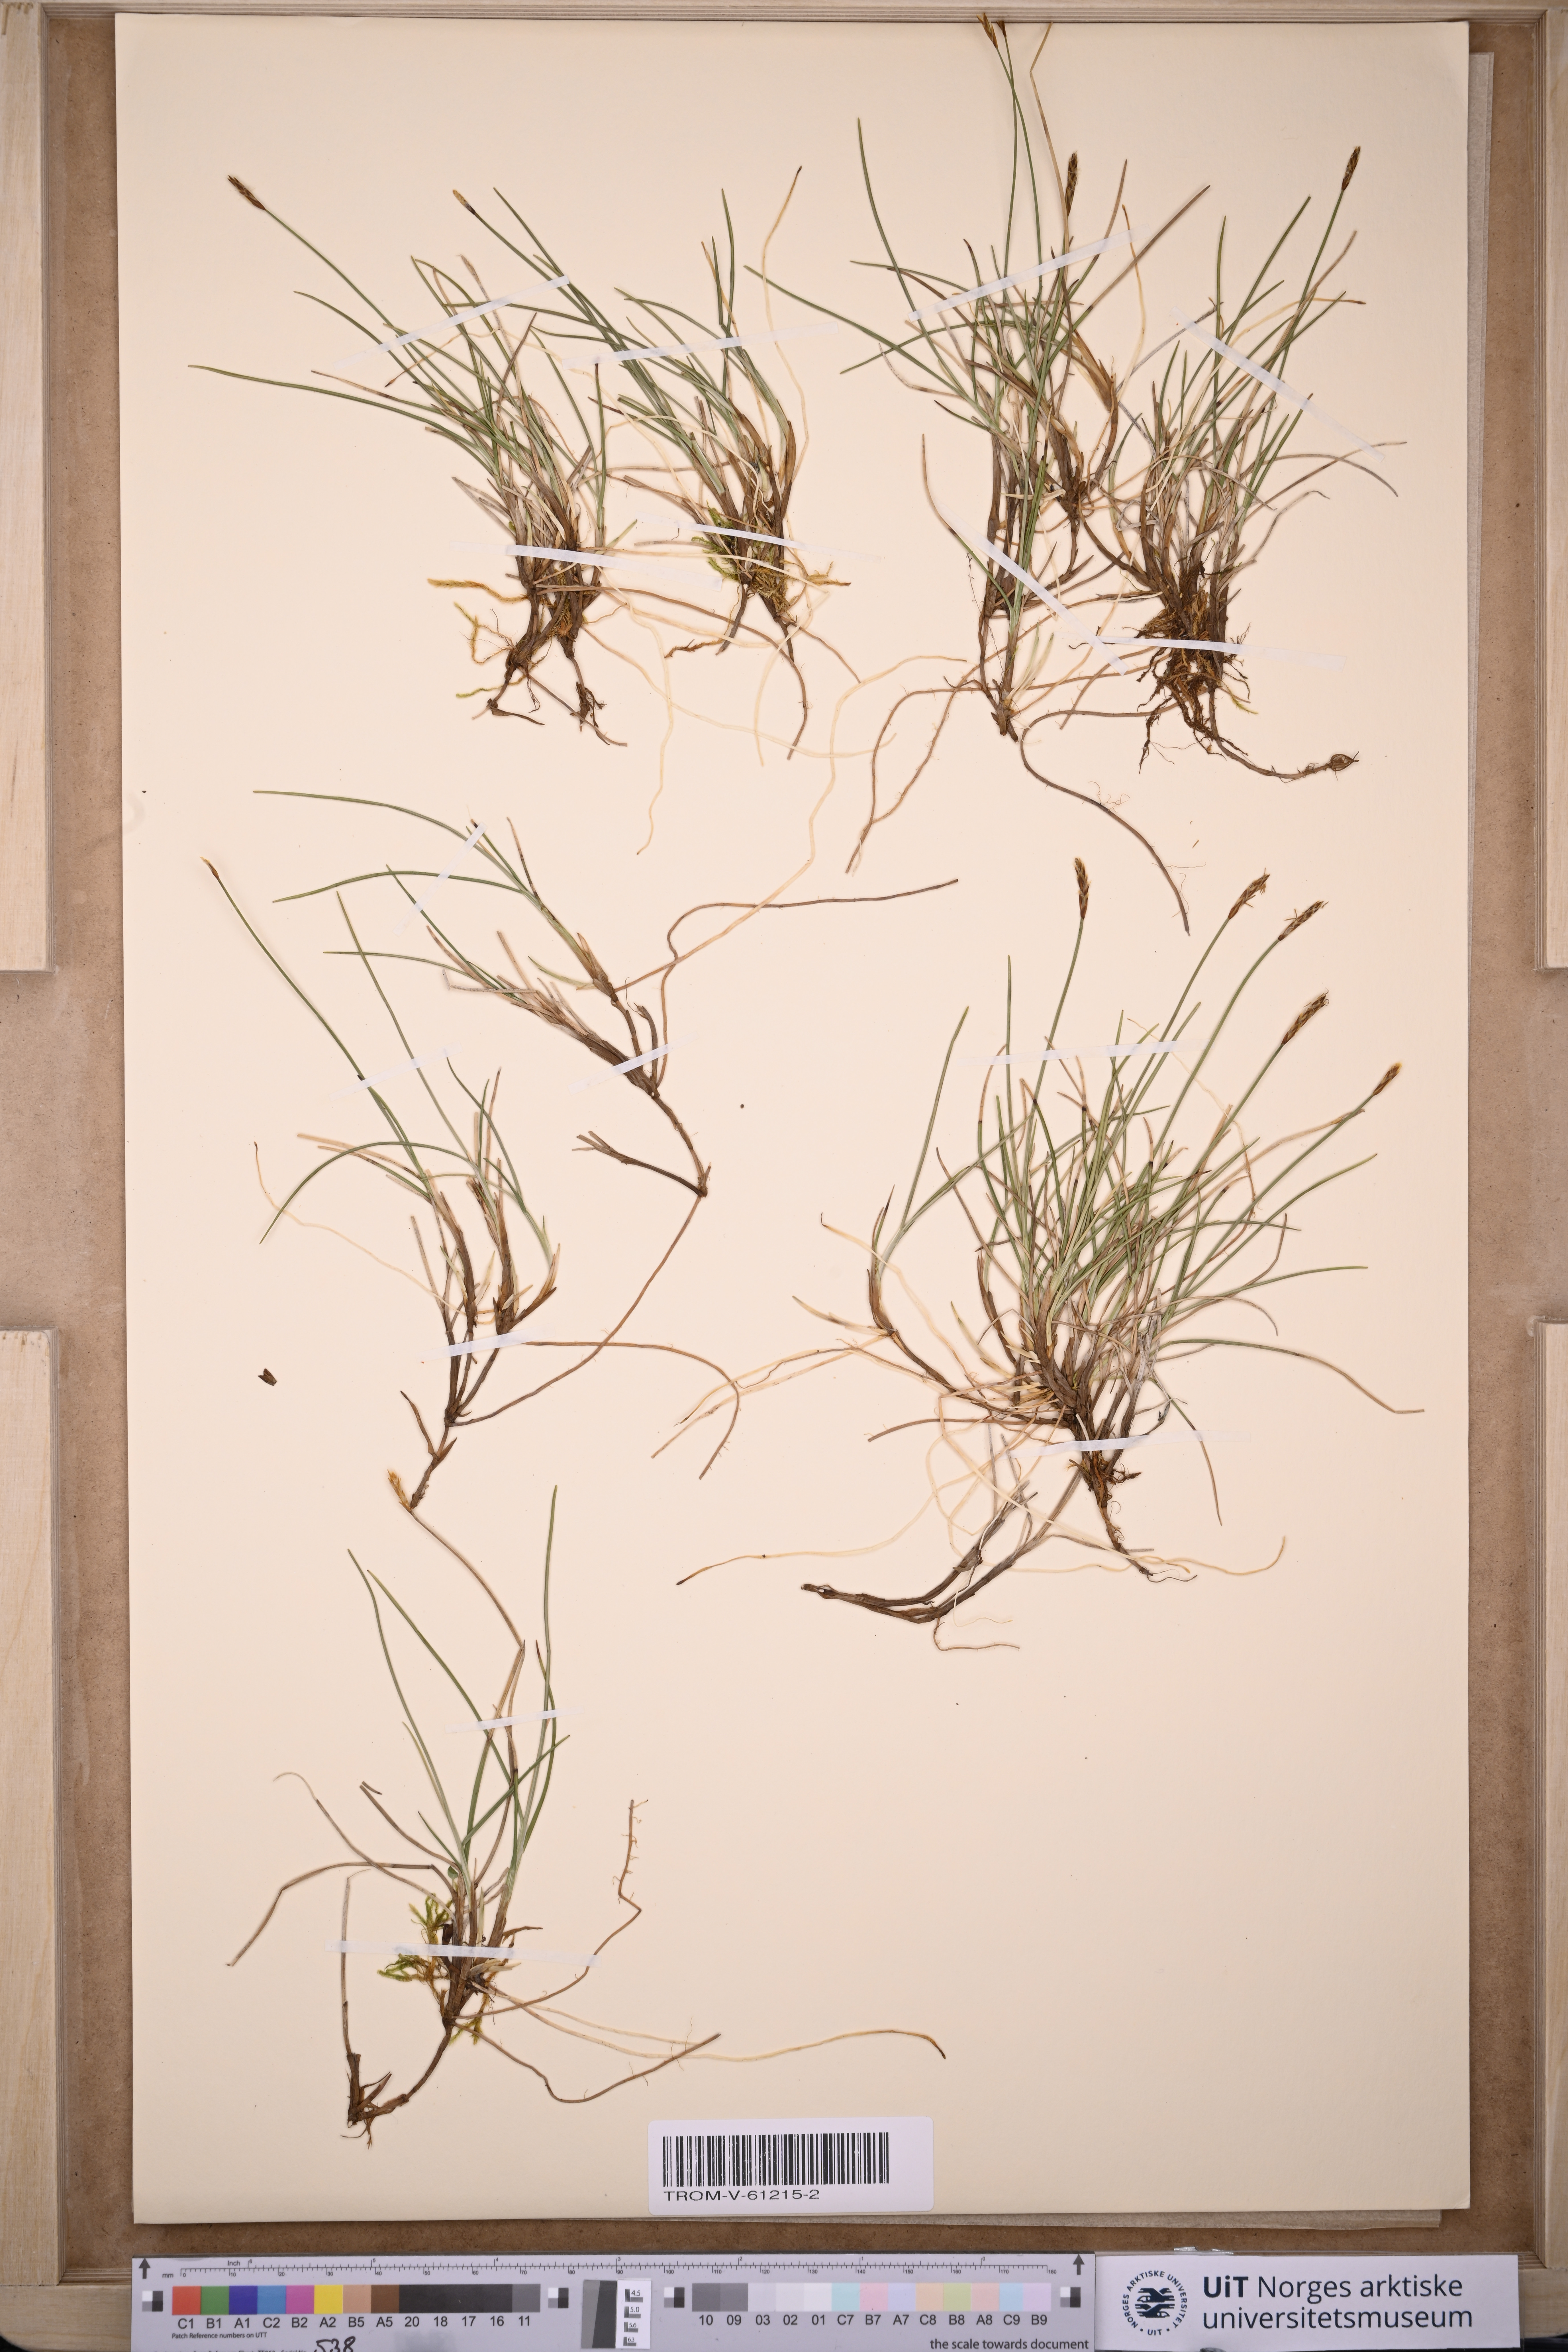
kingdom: Plantae
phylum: Tracheophyta
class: Liliopsida
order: Poales
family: Cyperaceae
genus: Carex
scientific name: Carex parallela
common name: Parallel sedge
